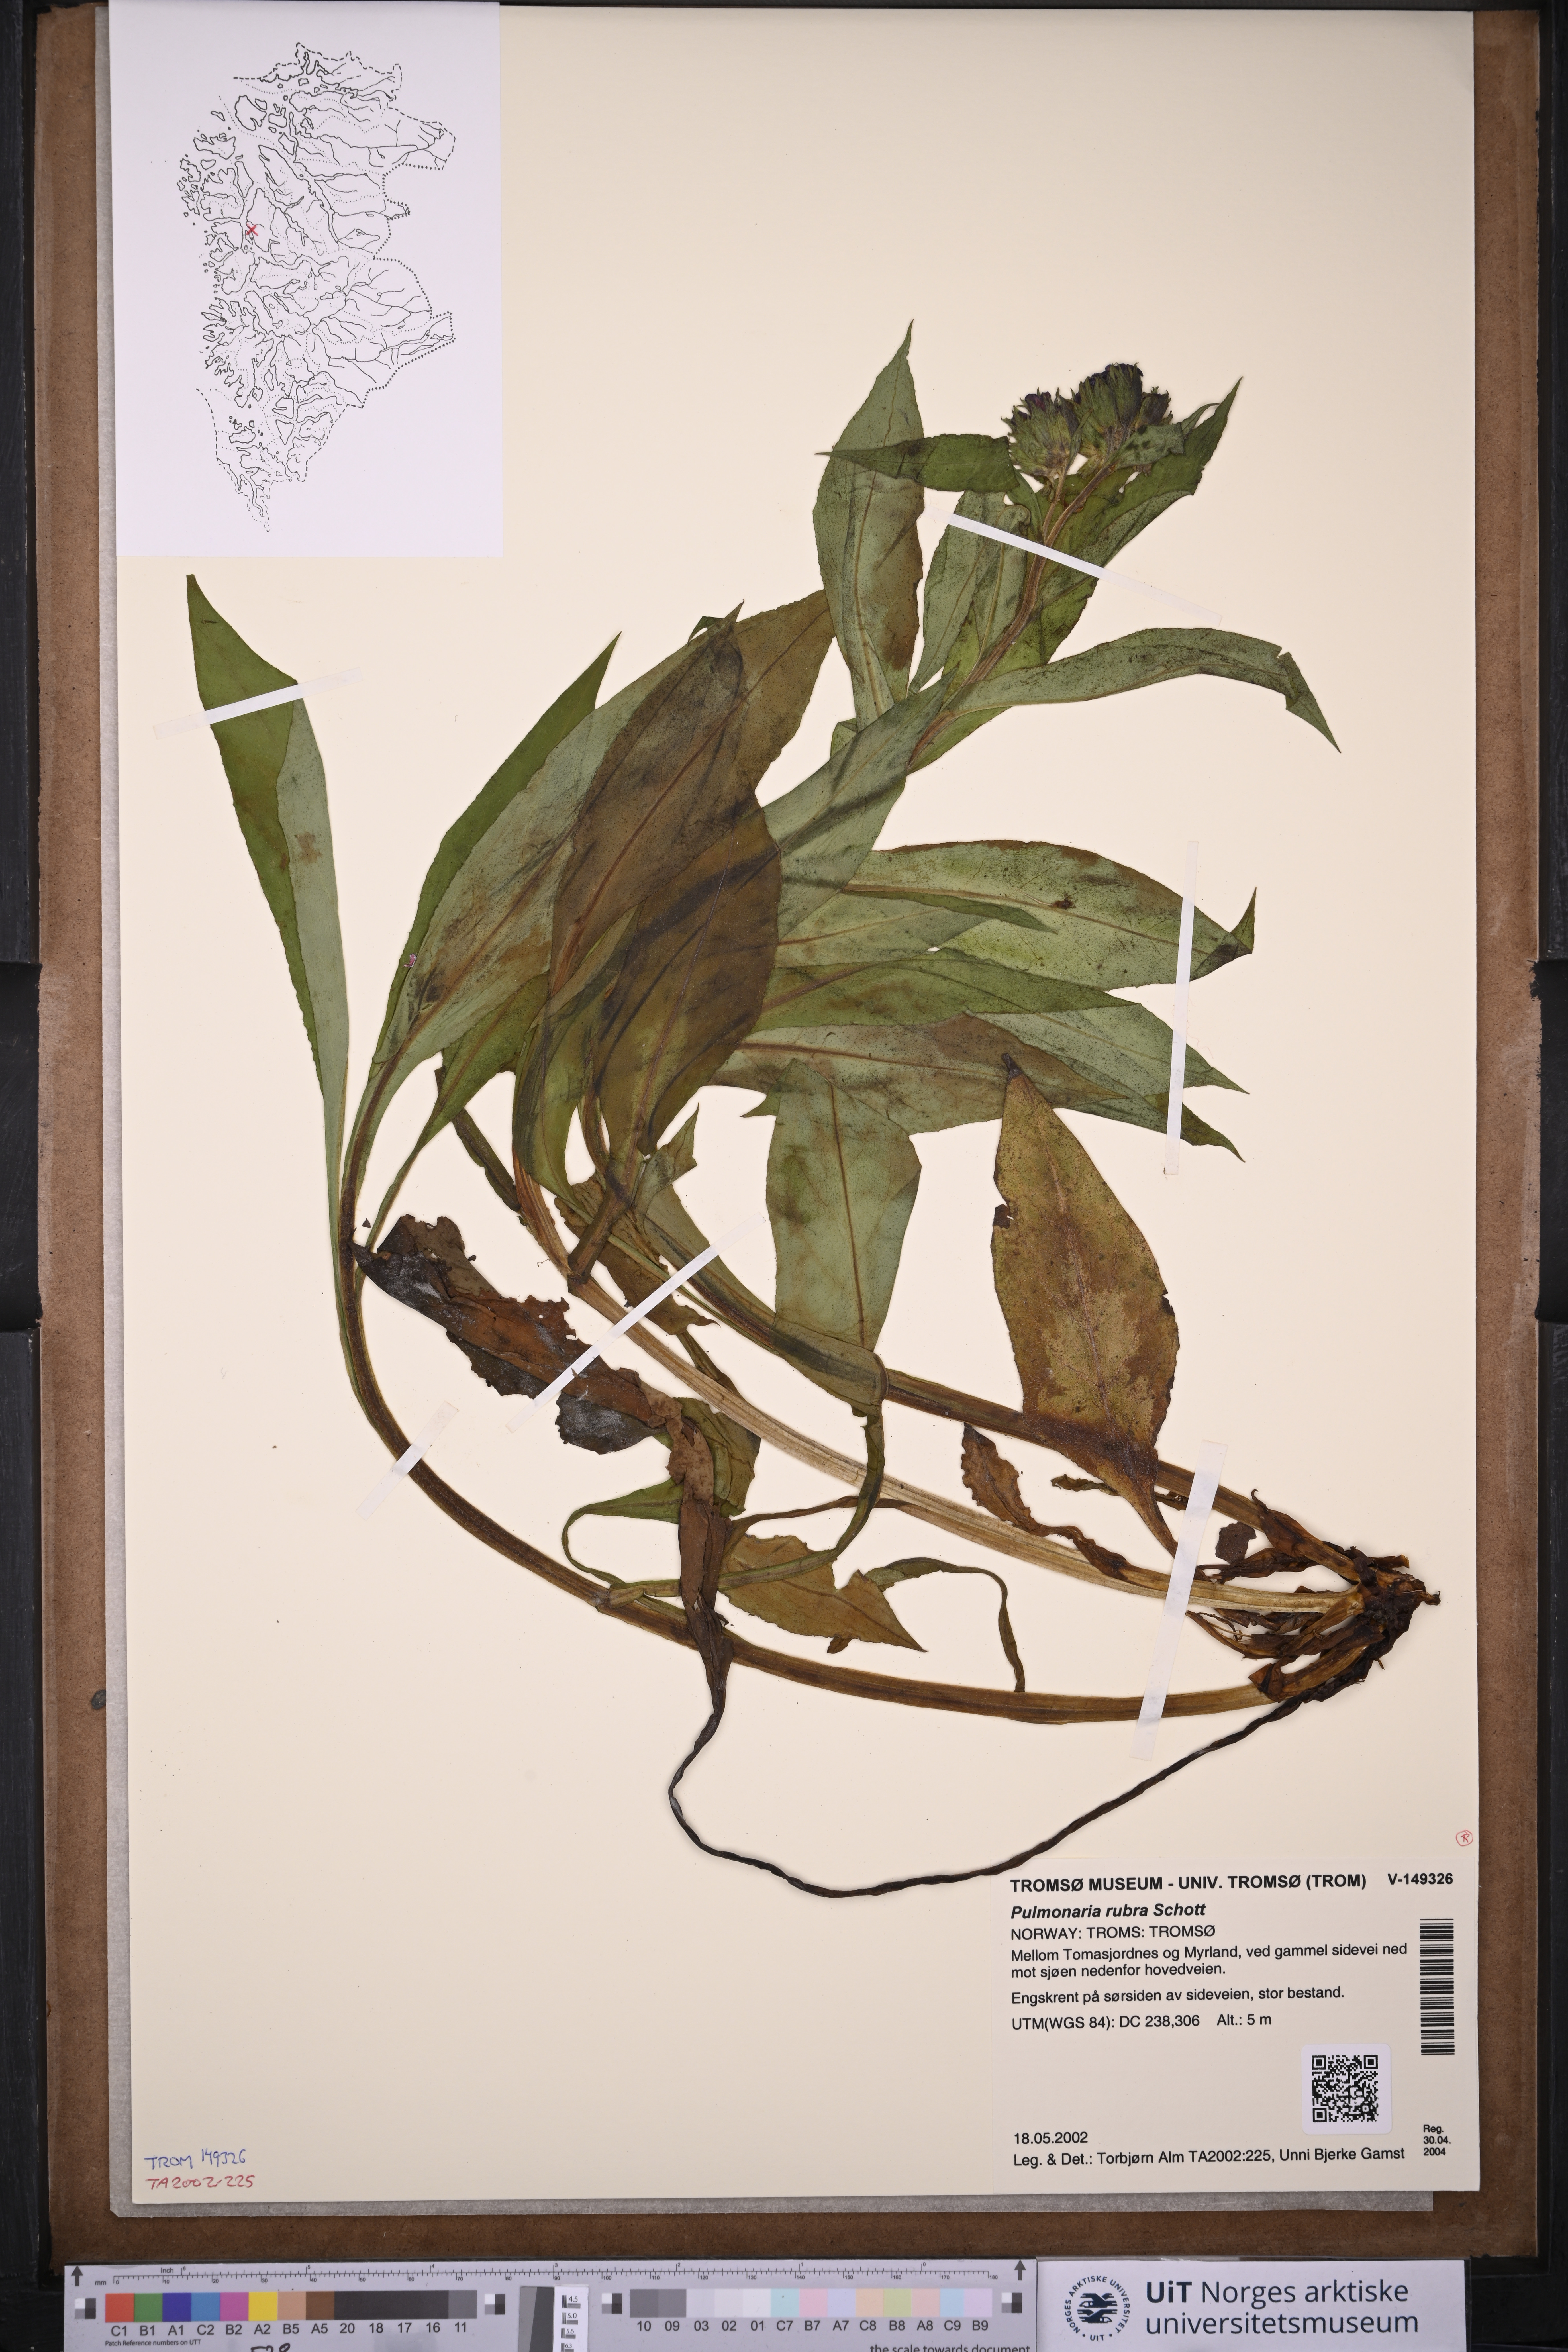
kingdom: Plantae
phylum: Tracheophyta
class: Magnoliopsida
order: Boraginales
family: Boraginaceae
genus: Pulmonaria
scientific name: Pulmonaria rubra
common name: Red lungwort
